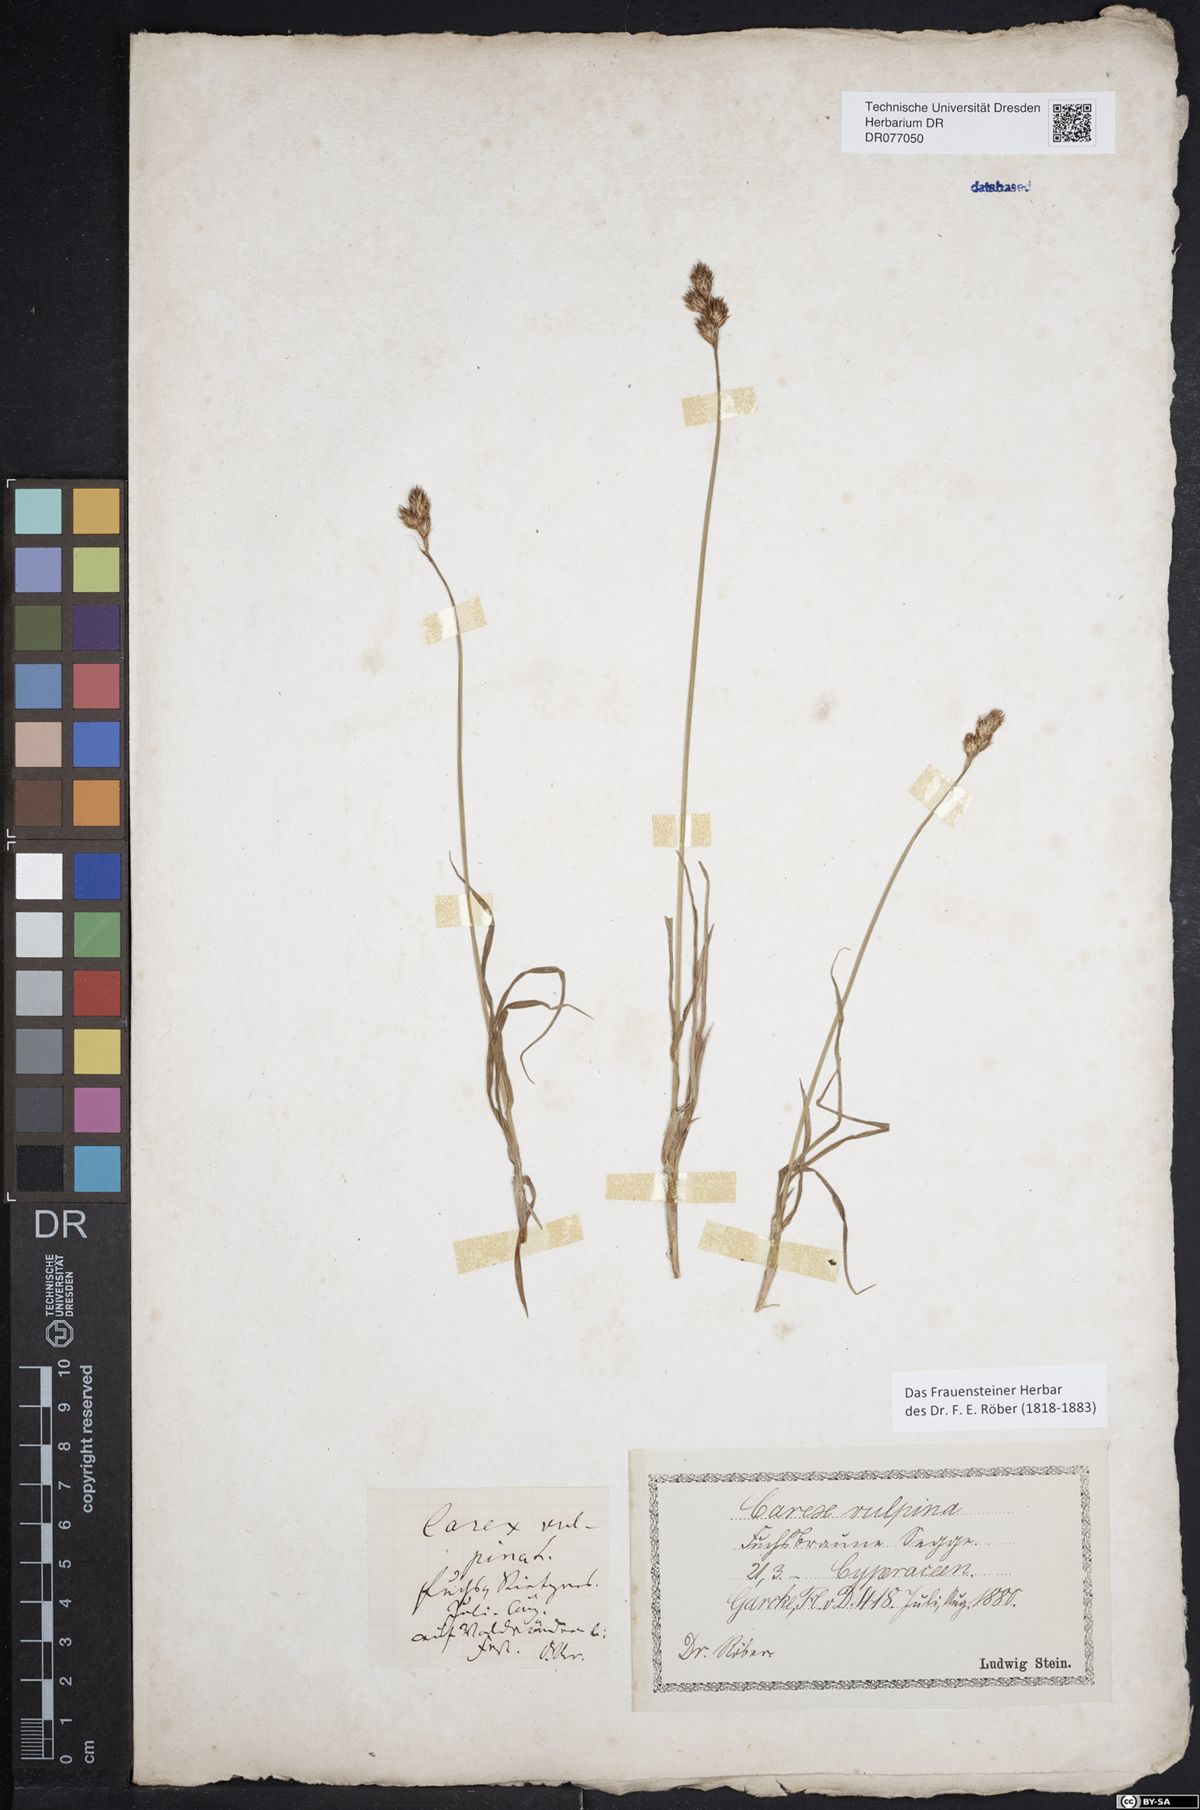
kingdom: Plantae
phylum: Tracheophyta
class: Liliopsida
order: Poales
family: Cyperaceae
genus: Carex
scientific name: Carex leporina
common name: Oval sedge
